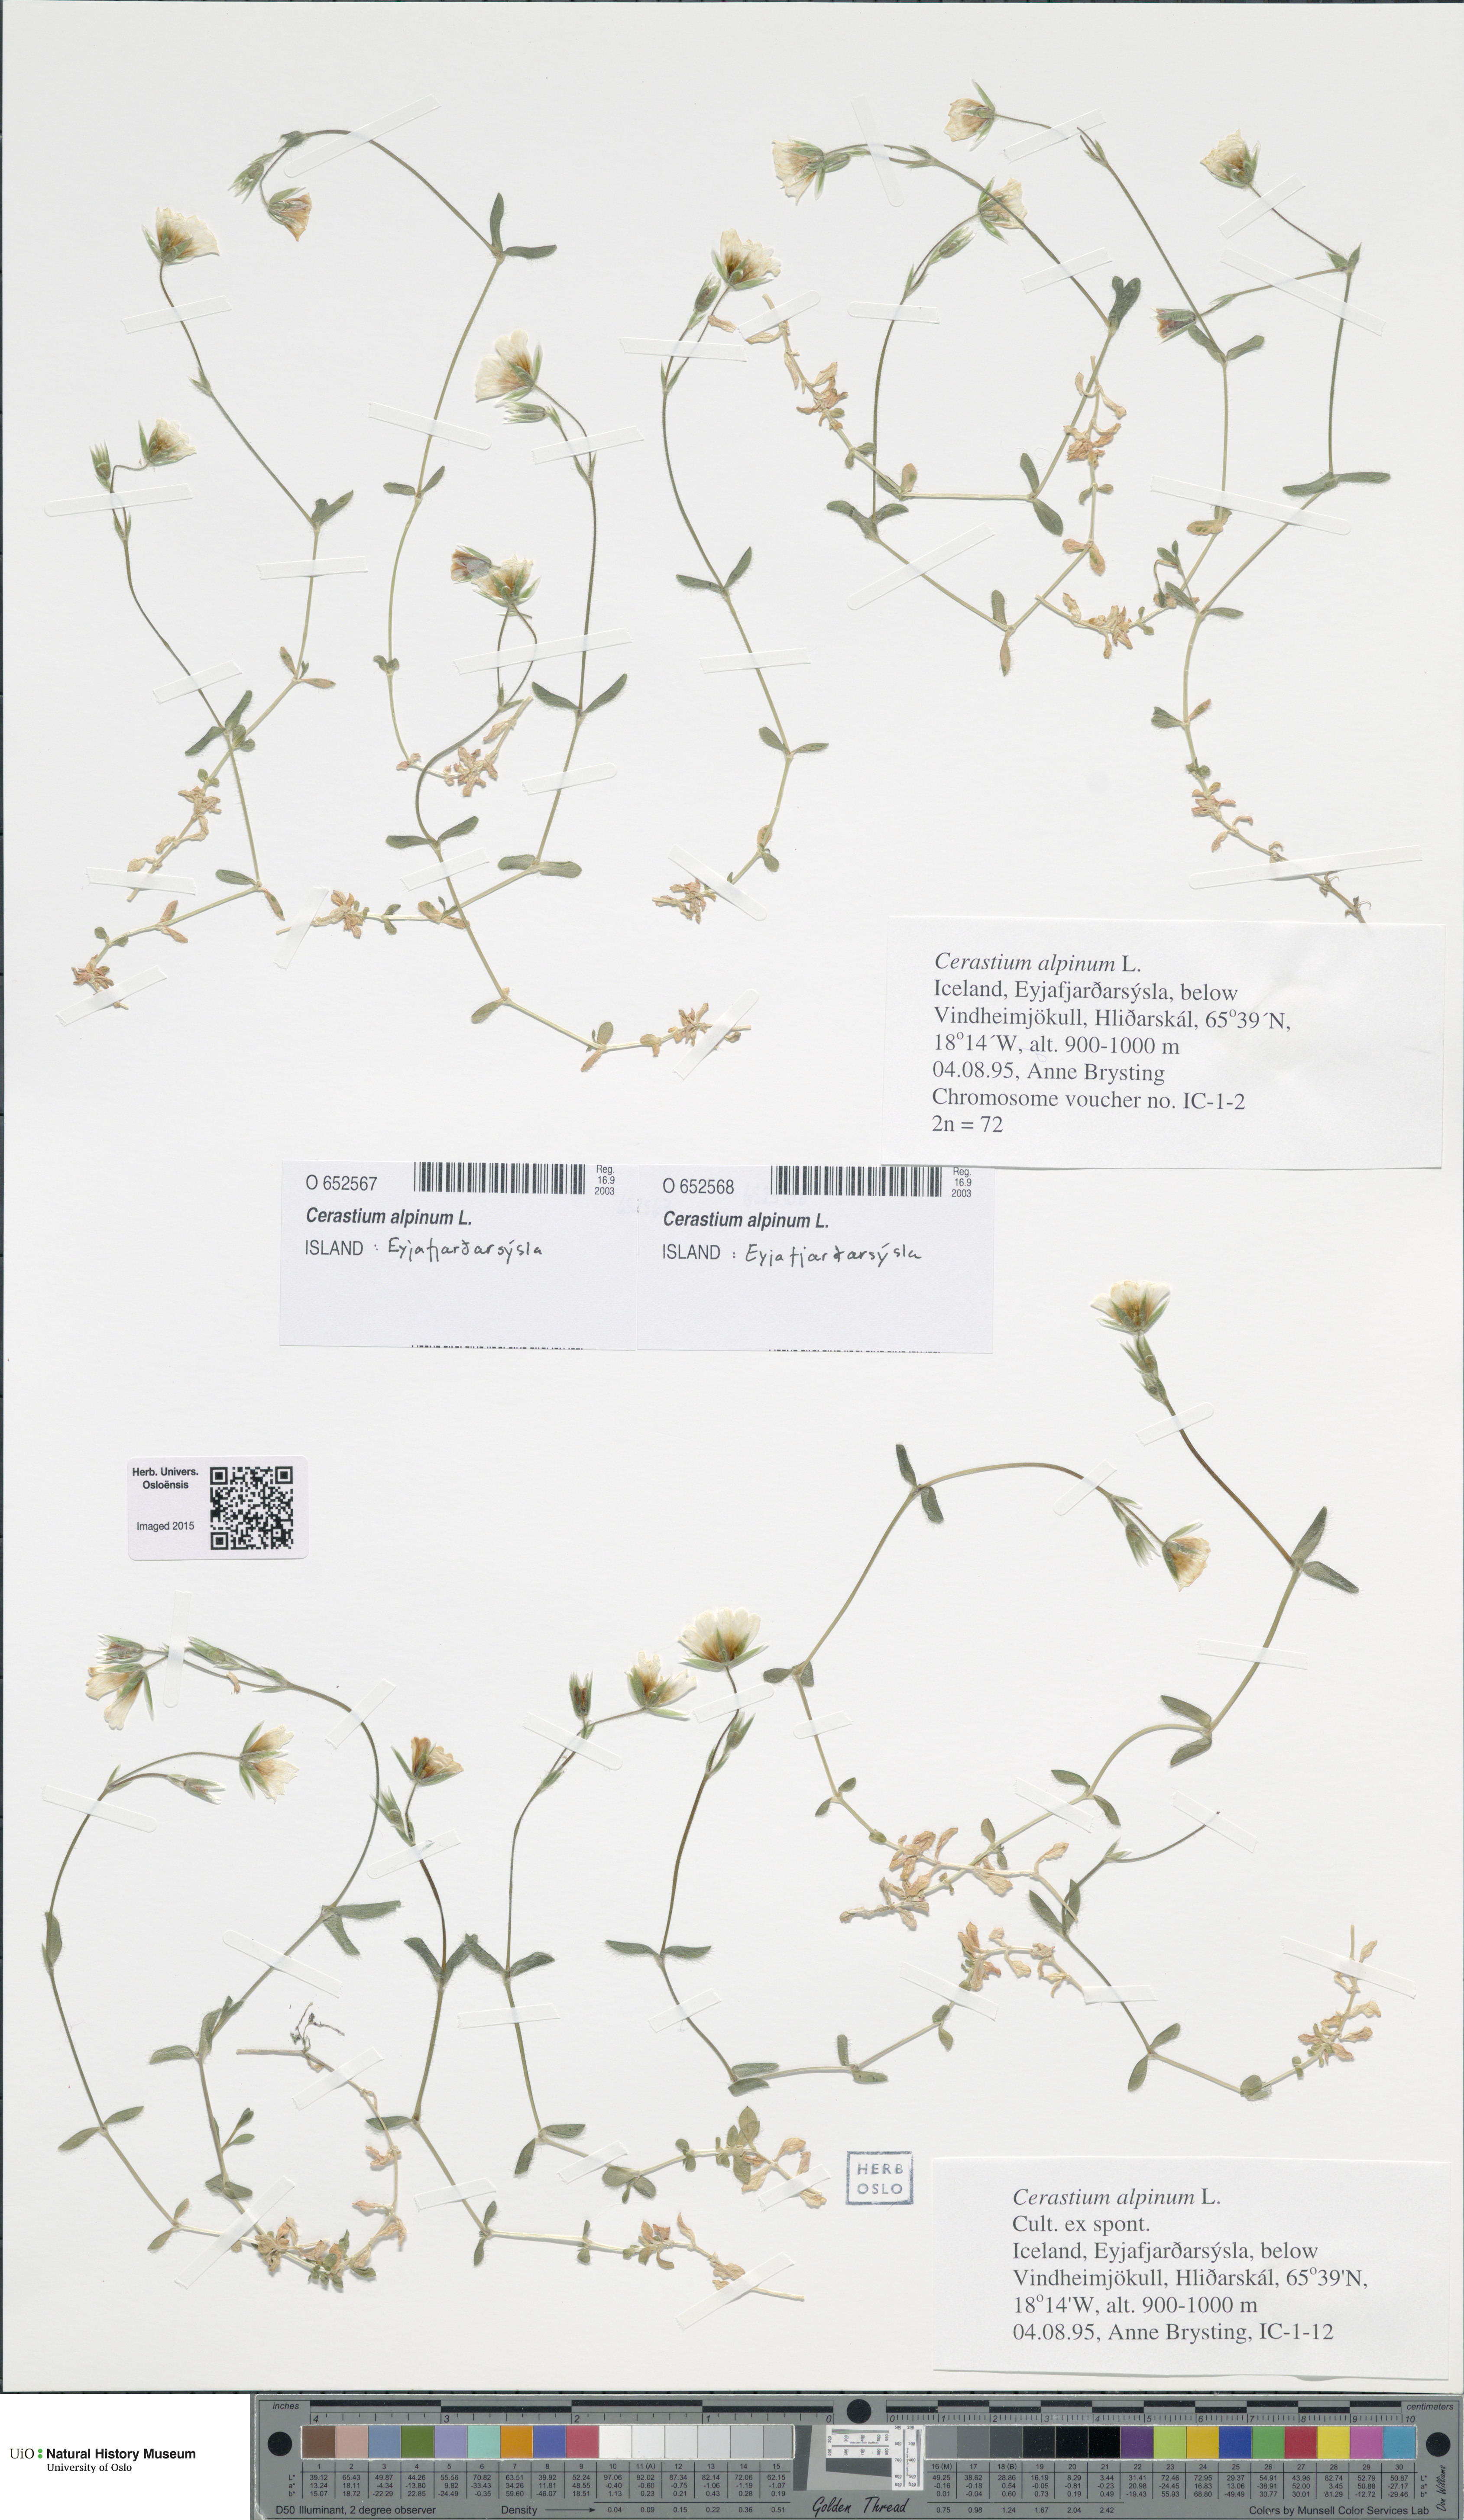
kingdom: Plantae
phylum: Tracheophyta
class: Magnoliopsida
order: Caryophyllales
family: Caryophyllaceae
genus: Cerastium
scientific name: Cerastium alpinum
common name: Alpine mouse-ear
